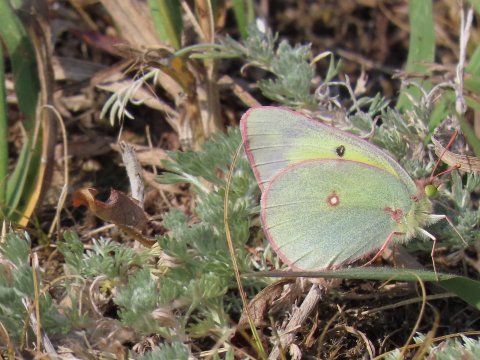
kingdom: Animalia
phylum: Arthropoda
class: Insecta
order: Lepidoptera
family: Pieridae
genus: Colias
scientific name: Colias interior
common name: Pink-edged Sulphur
